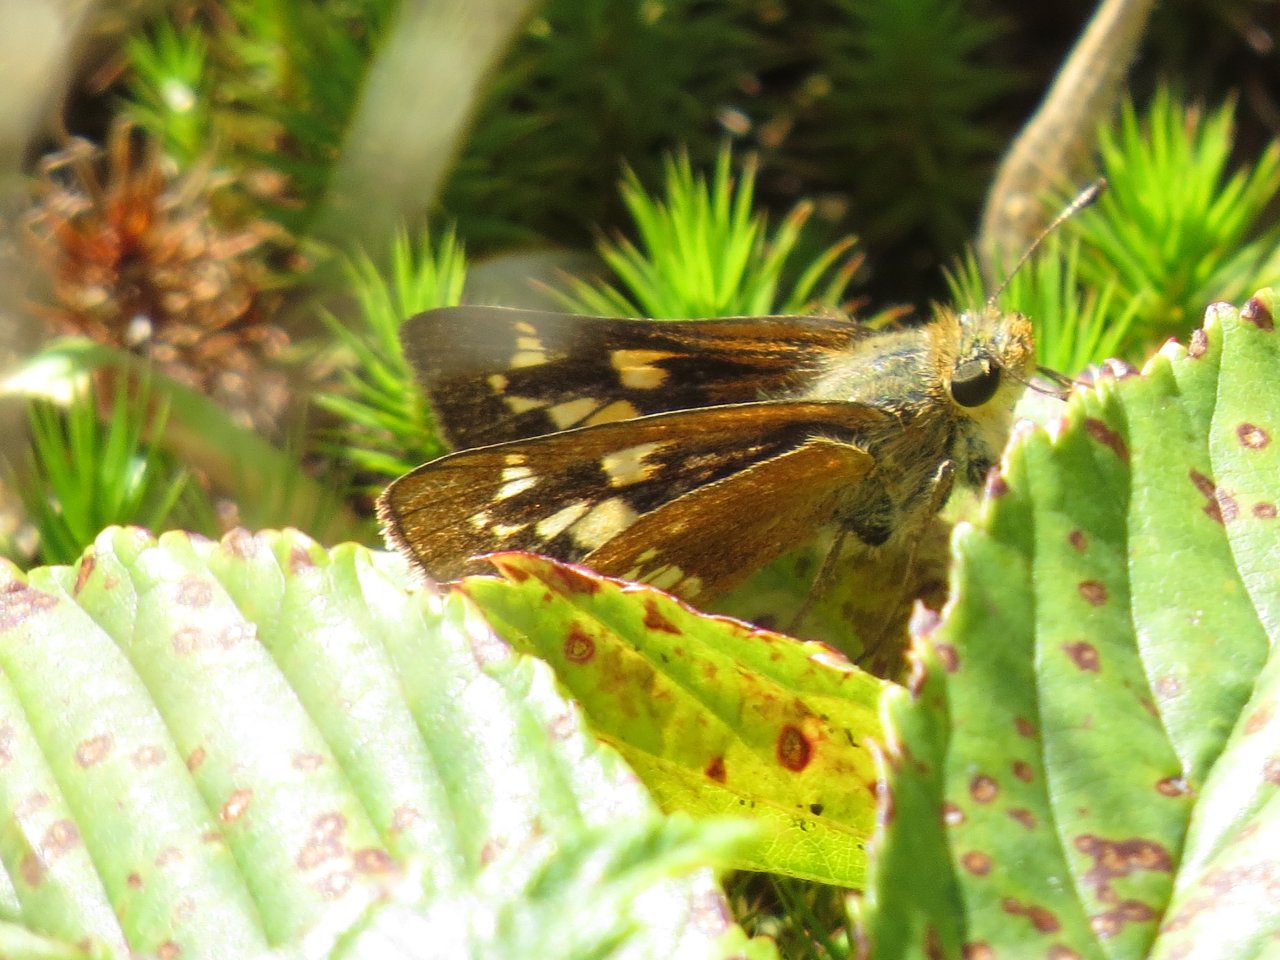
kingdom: Animalia
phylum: Arthropoda
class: Insecta
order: Lepidoptera
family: Hesperiidae
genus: Hesperia
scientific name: Hesperia leonardus
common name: Leonard's Skipper
